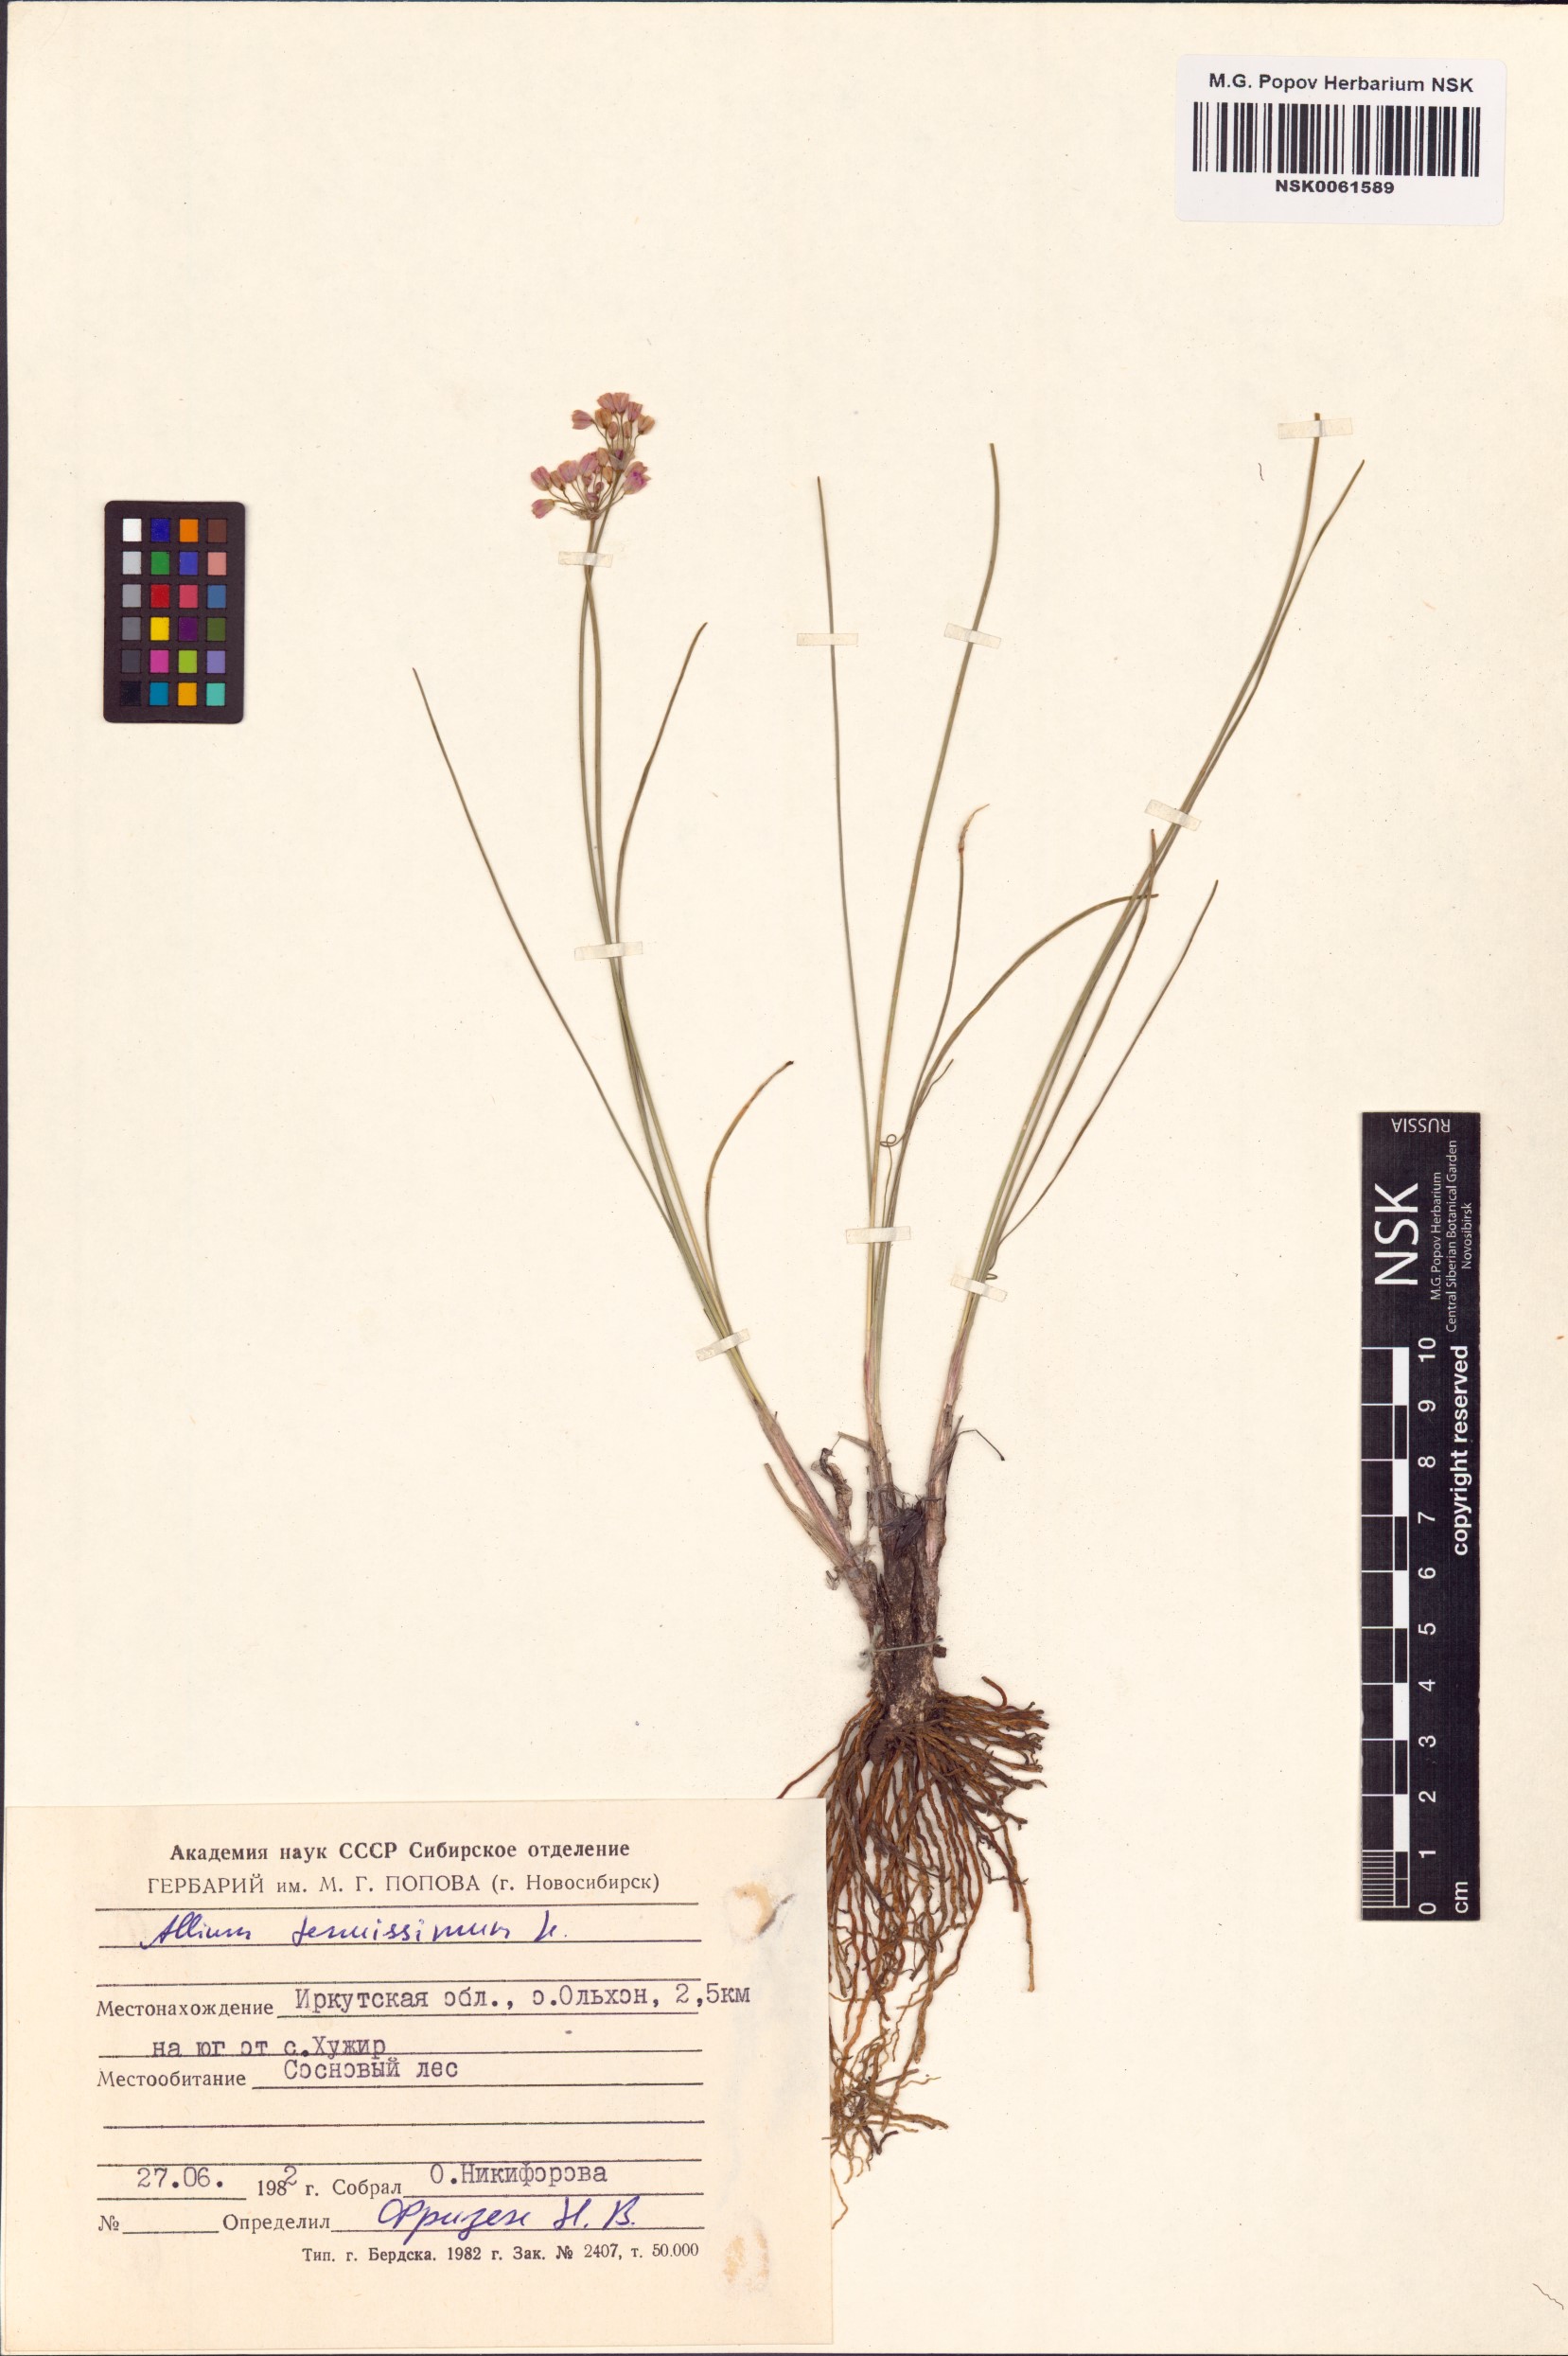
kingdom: Plantae
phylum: Tracheophyta
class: Liliopsida
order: Asparagales
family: Amaryllidaceae
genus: Allium
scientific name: Allium tenuissimum
